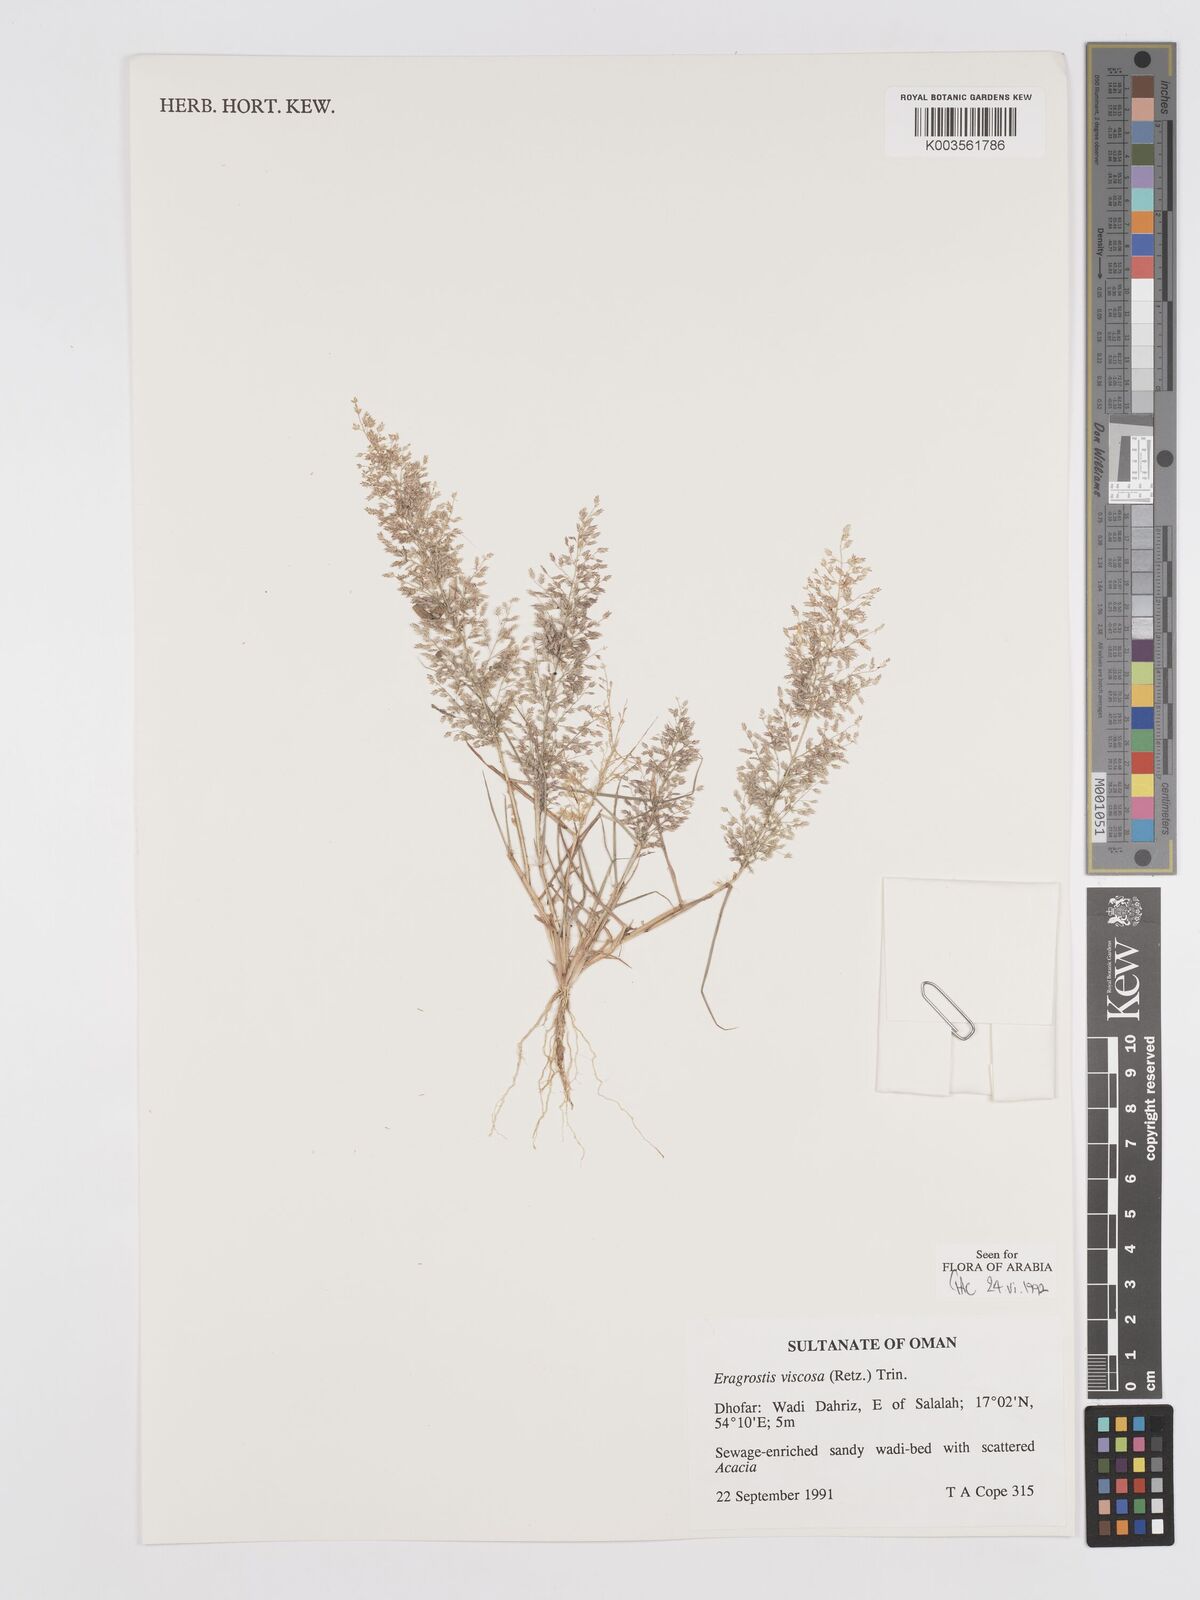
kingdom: Plantae
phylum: Tracheophyta
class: Liliopsida
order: Poales
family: Poaceae
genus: Eragrostis
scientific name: Eragrostis viscosa
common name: Sticky love grass
